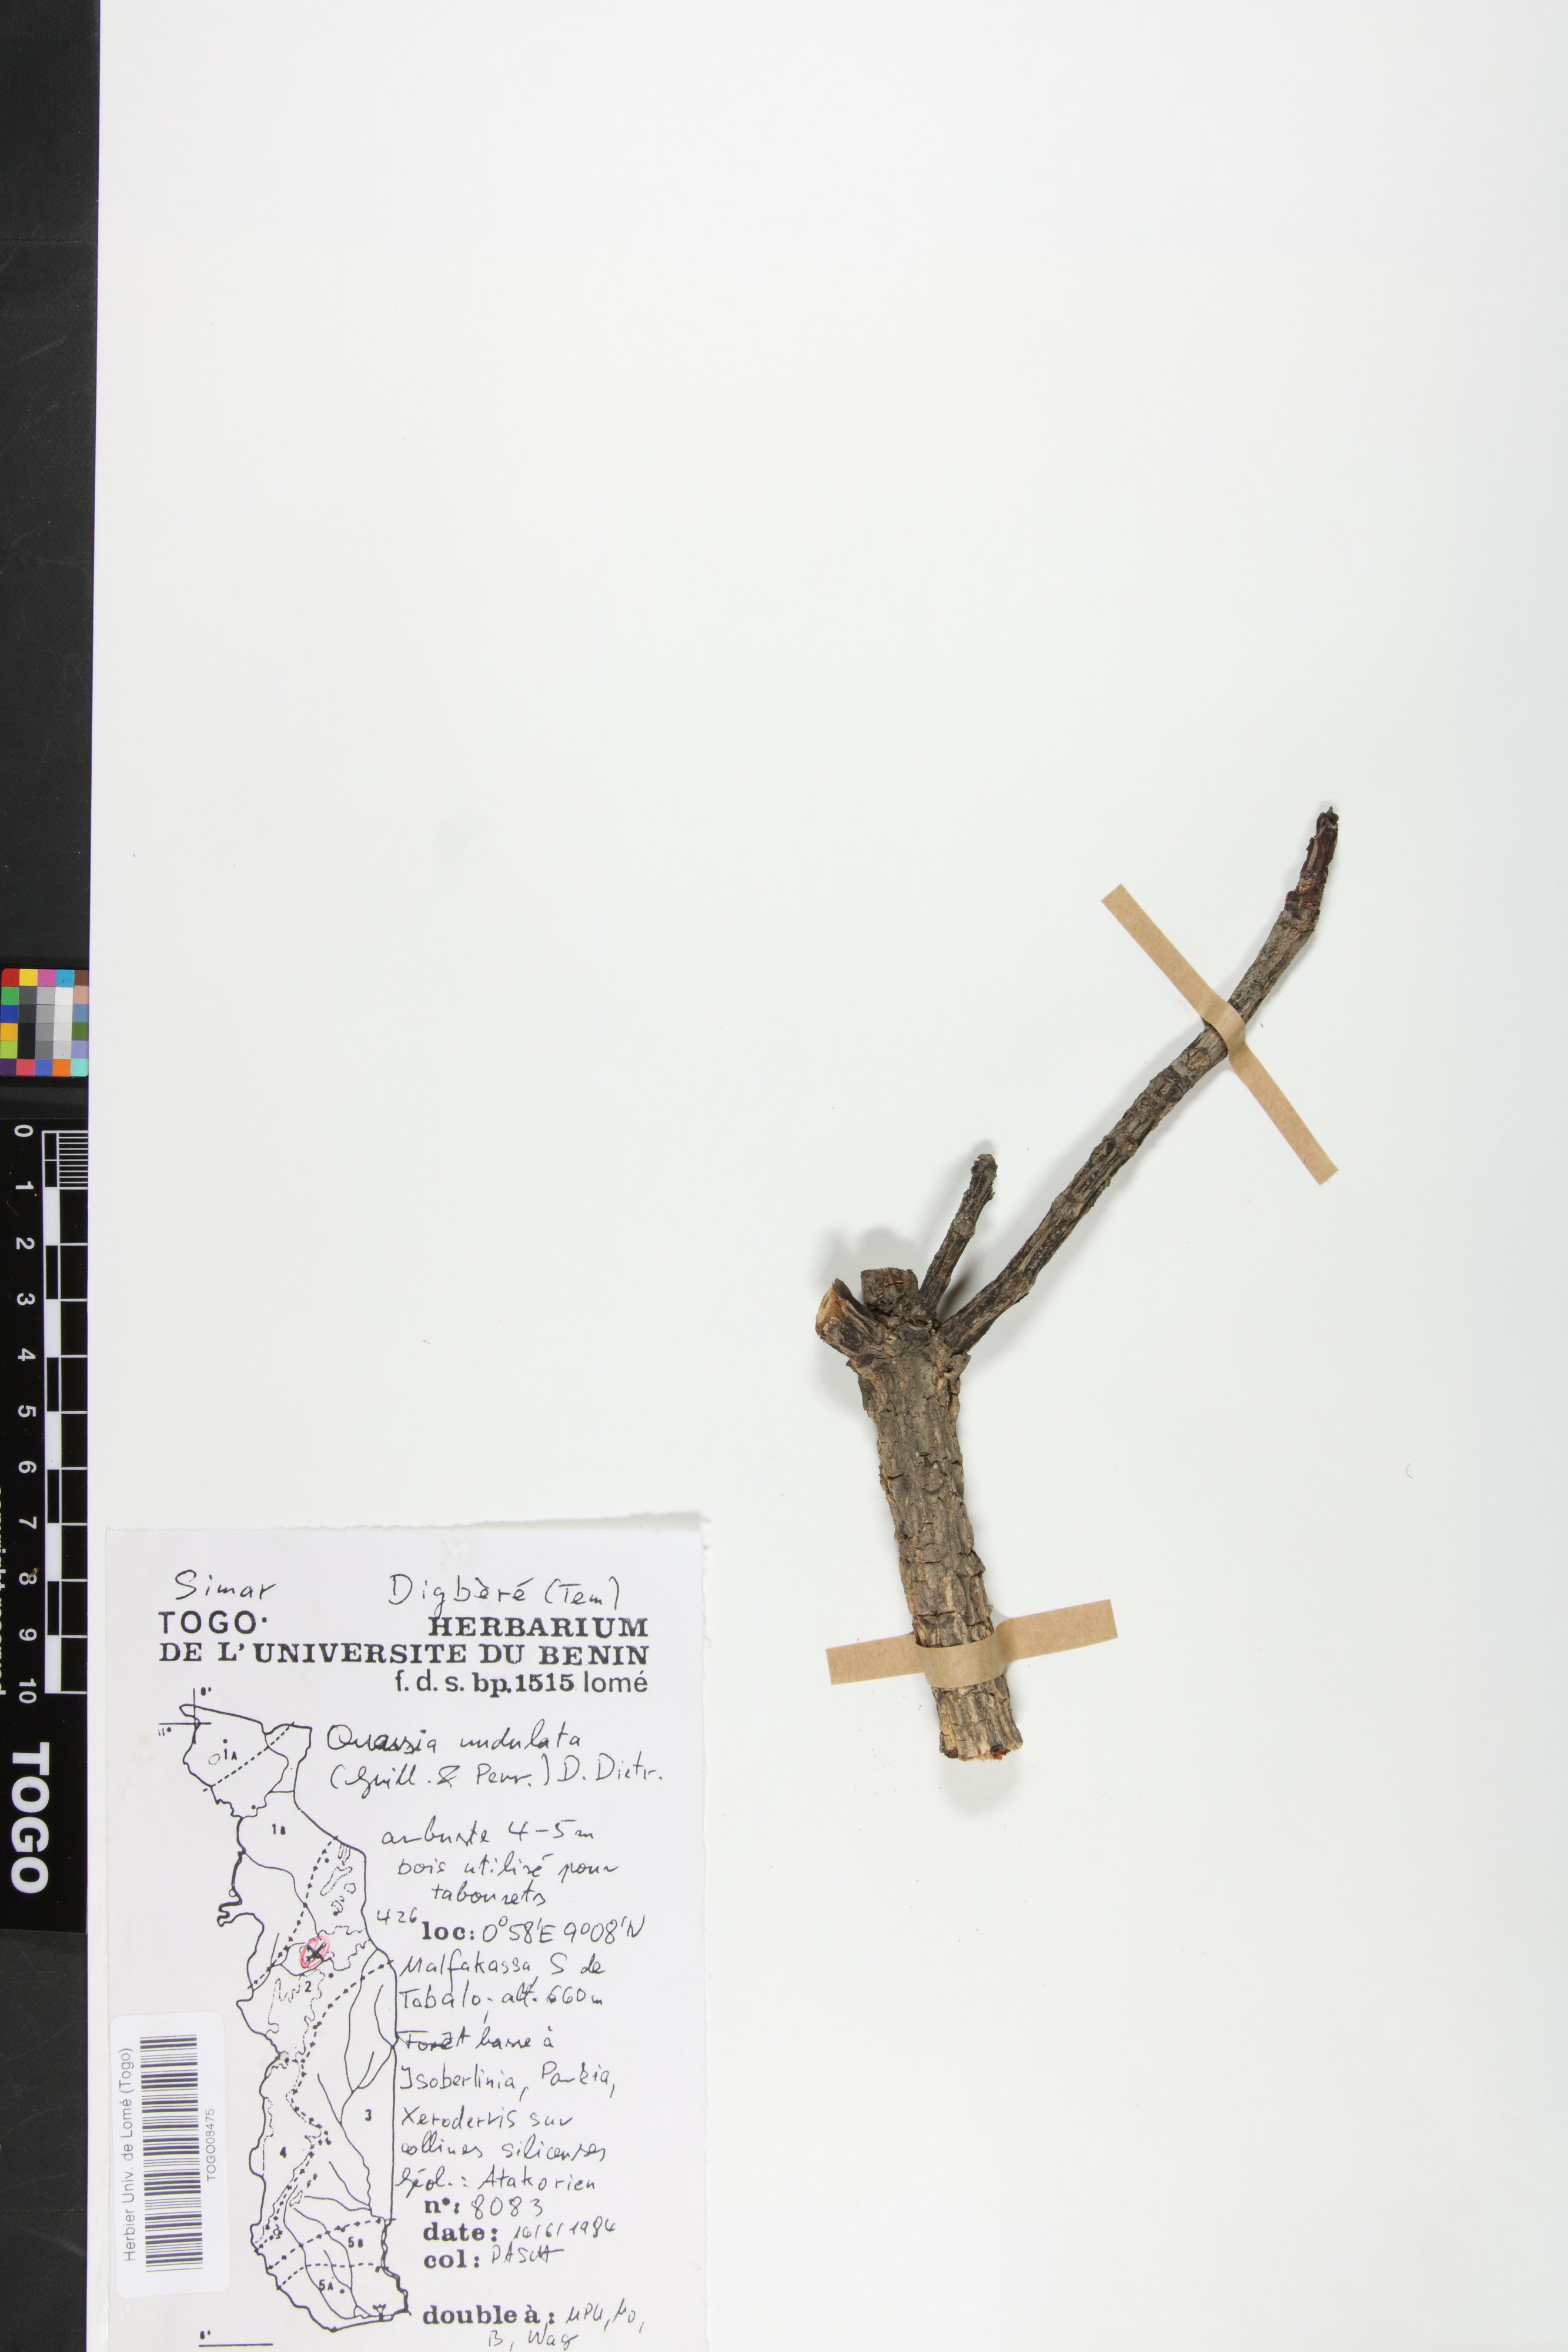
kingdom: Plantae
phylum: Tracheophyta
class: Magnoliopsida
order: Sapindales
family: Simaroubaceae
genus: Odyendyea
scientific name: Odyendyea klaineana
